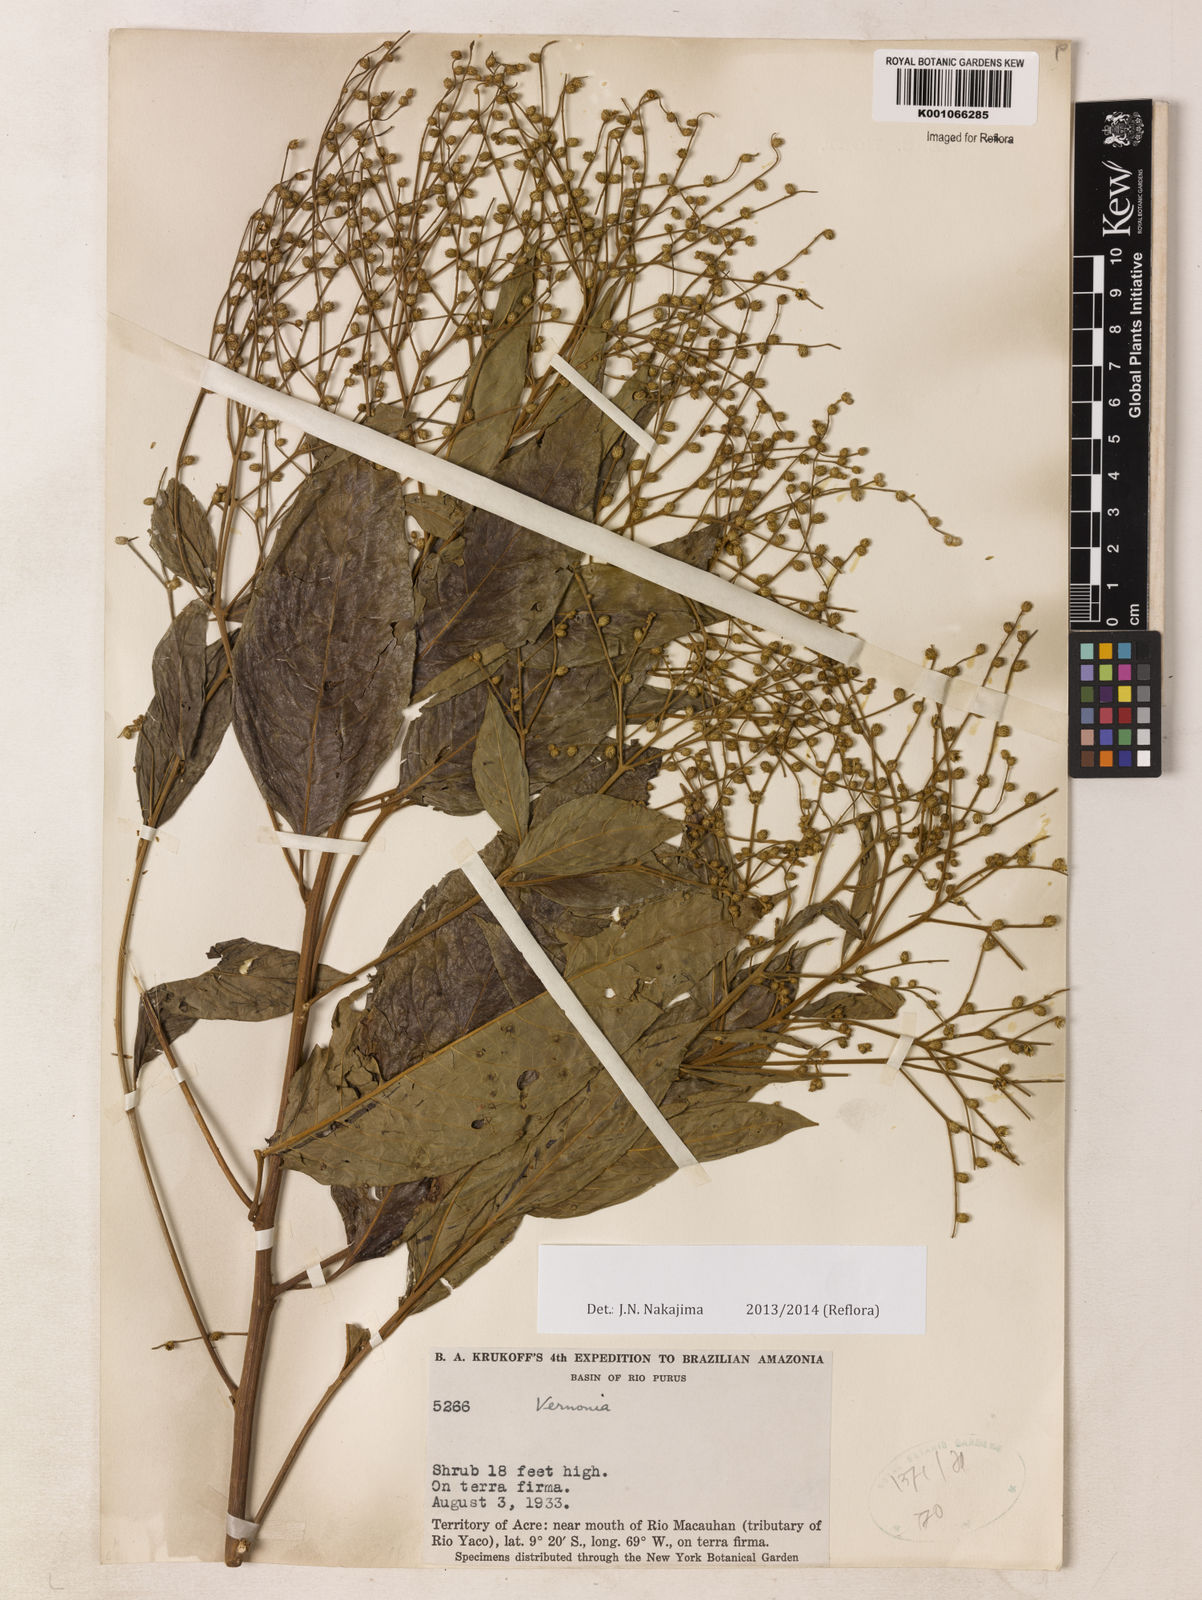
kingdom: Plantae
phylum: Tracheophyta
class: Magnoliopsida
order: Asterales
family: Asteraceae
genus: Vernonia
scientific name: Vernonia
